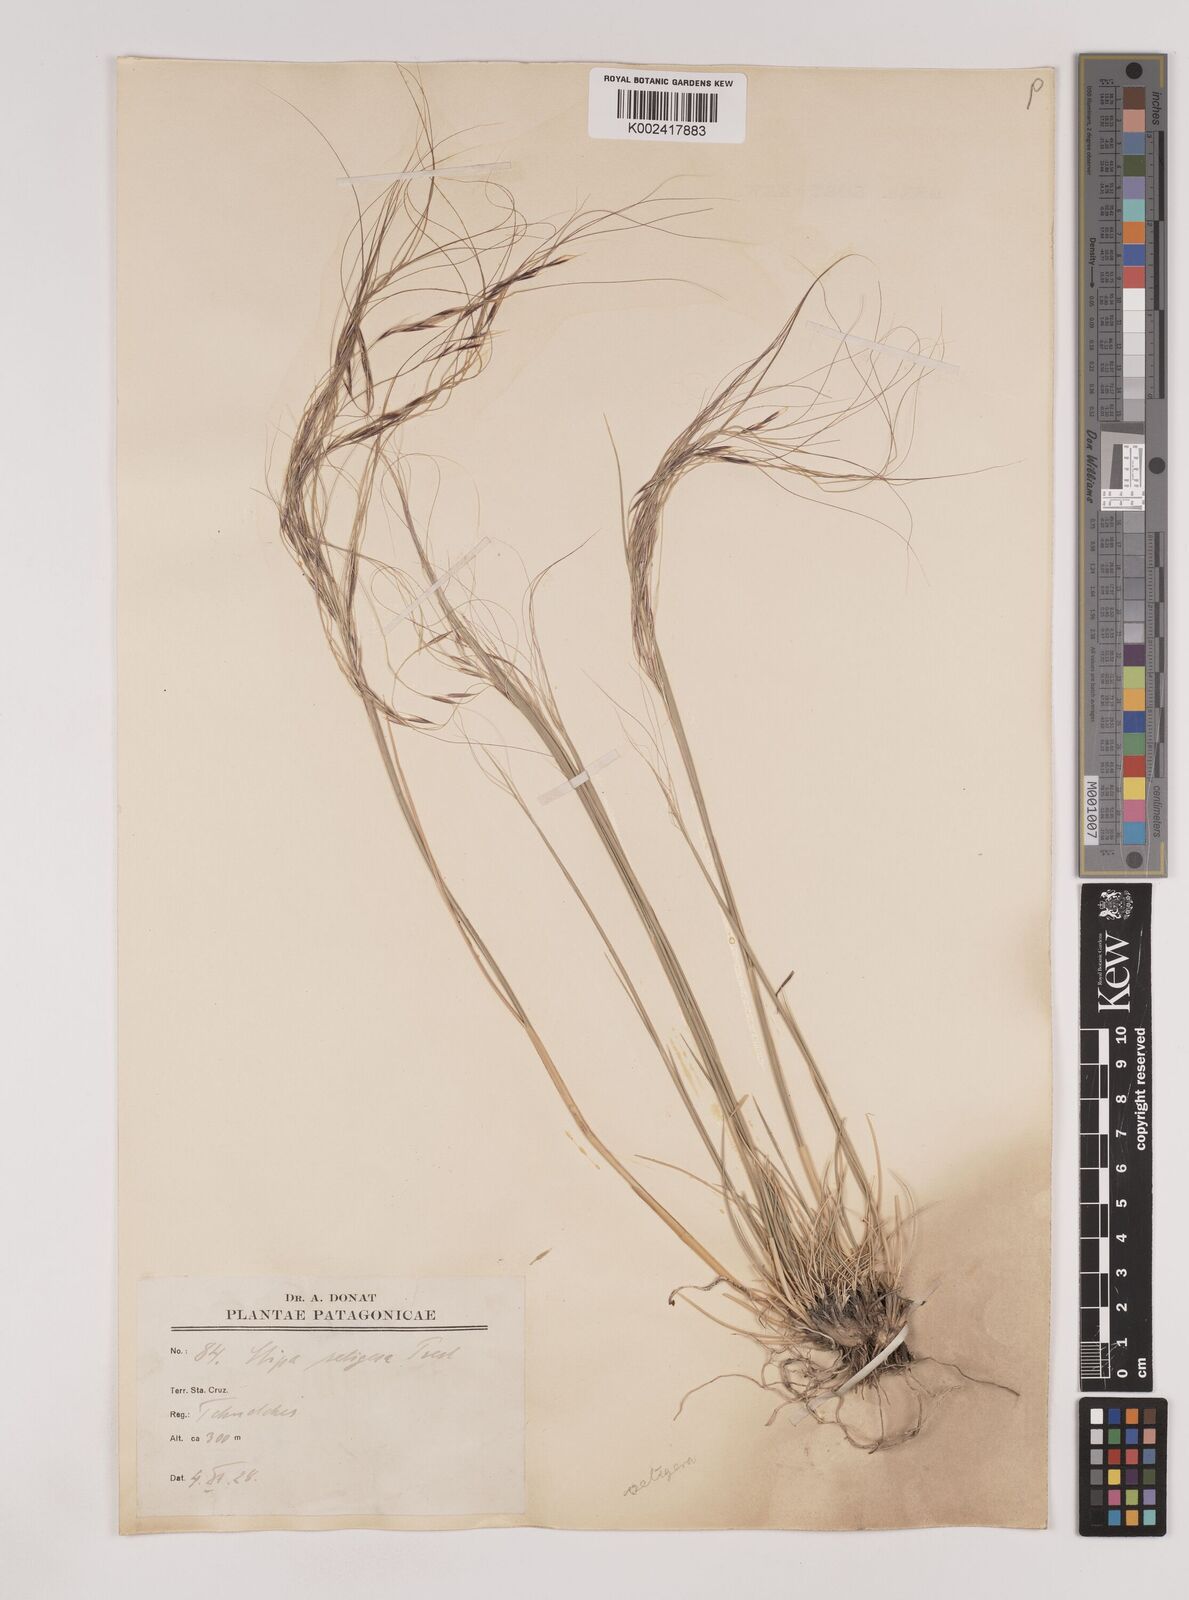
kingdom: Plantae
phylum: Tracheophyta
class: Liliopsida
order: Poales
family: Poaceae
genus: Nassella
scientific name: Nassella neesiana
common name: American needle-grass
